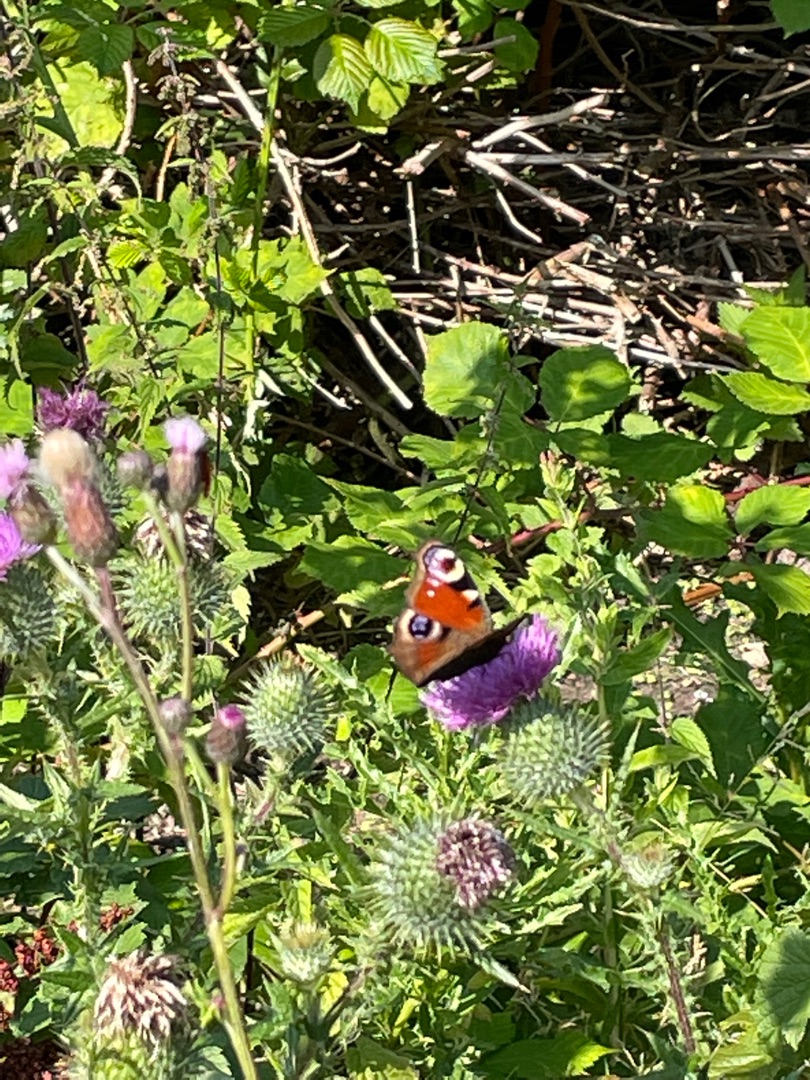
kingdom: Animalia
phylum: Arthropoda
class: Insecta
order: Lepidoptera
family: Nymphalidae
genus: Aglais
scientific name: Aglais io
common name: Dagpåfugleøje
